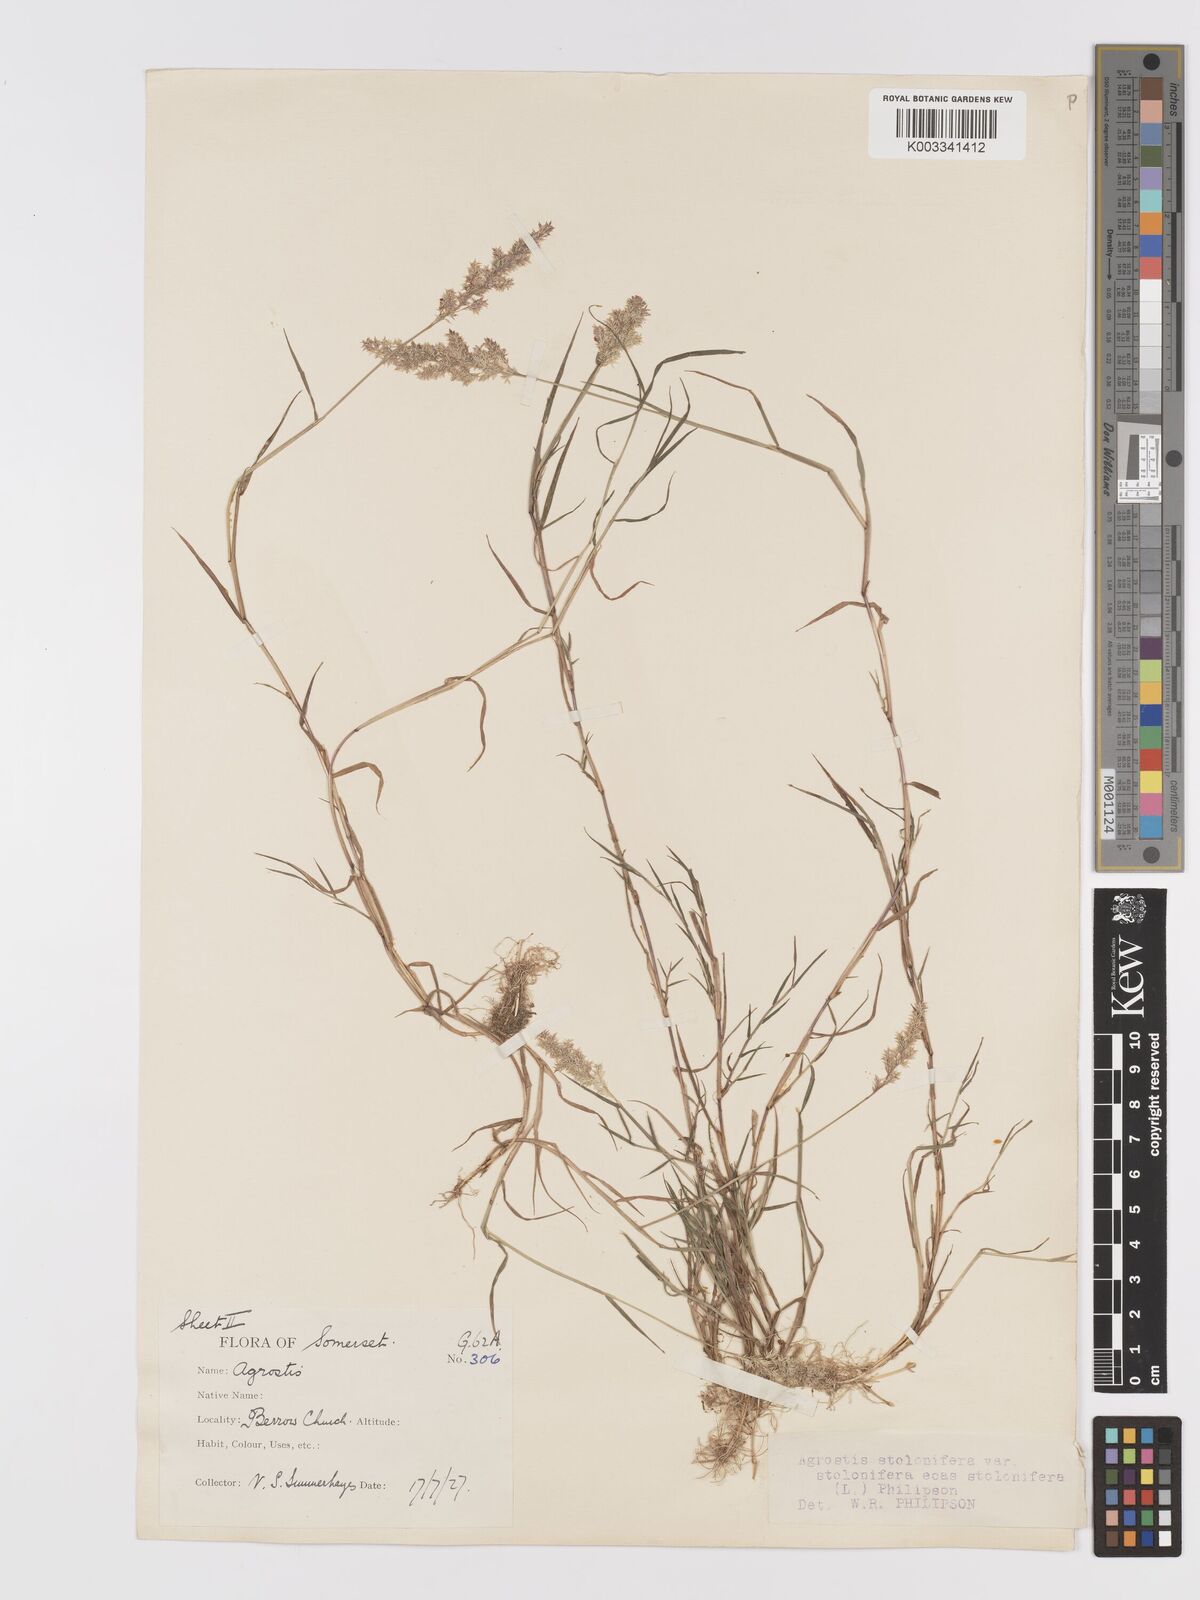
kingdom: Plantae
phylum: Tracheophyta
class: Liliopsida
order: Poales
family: Poaceae
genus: Agrostis
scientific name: Agrostis stolonifera
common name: Creeping bentgrass
